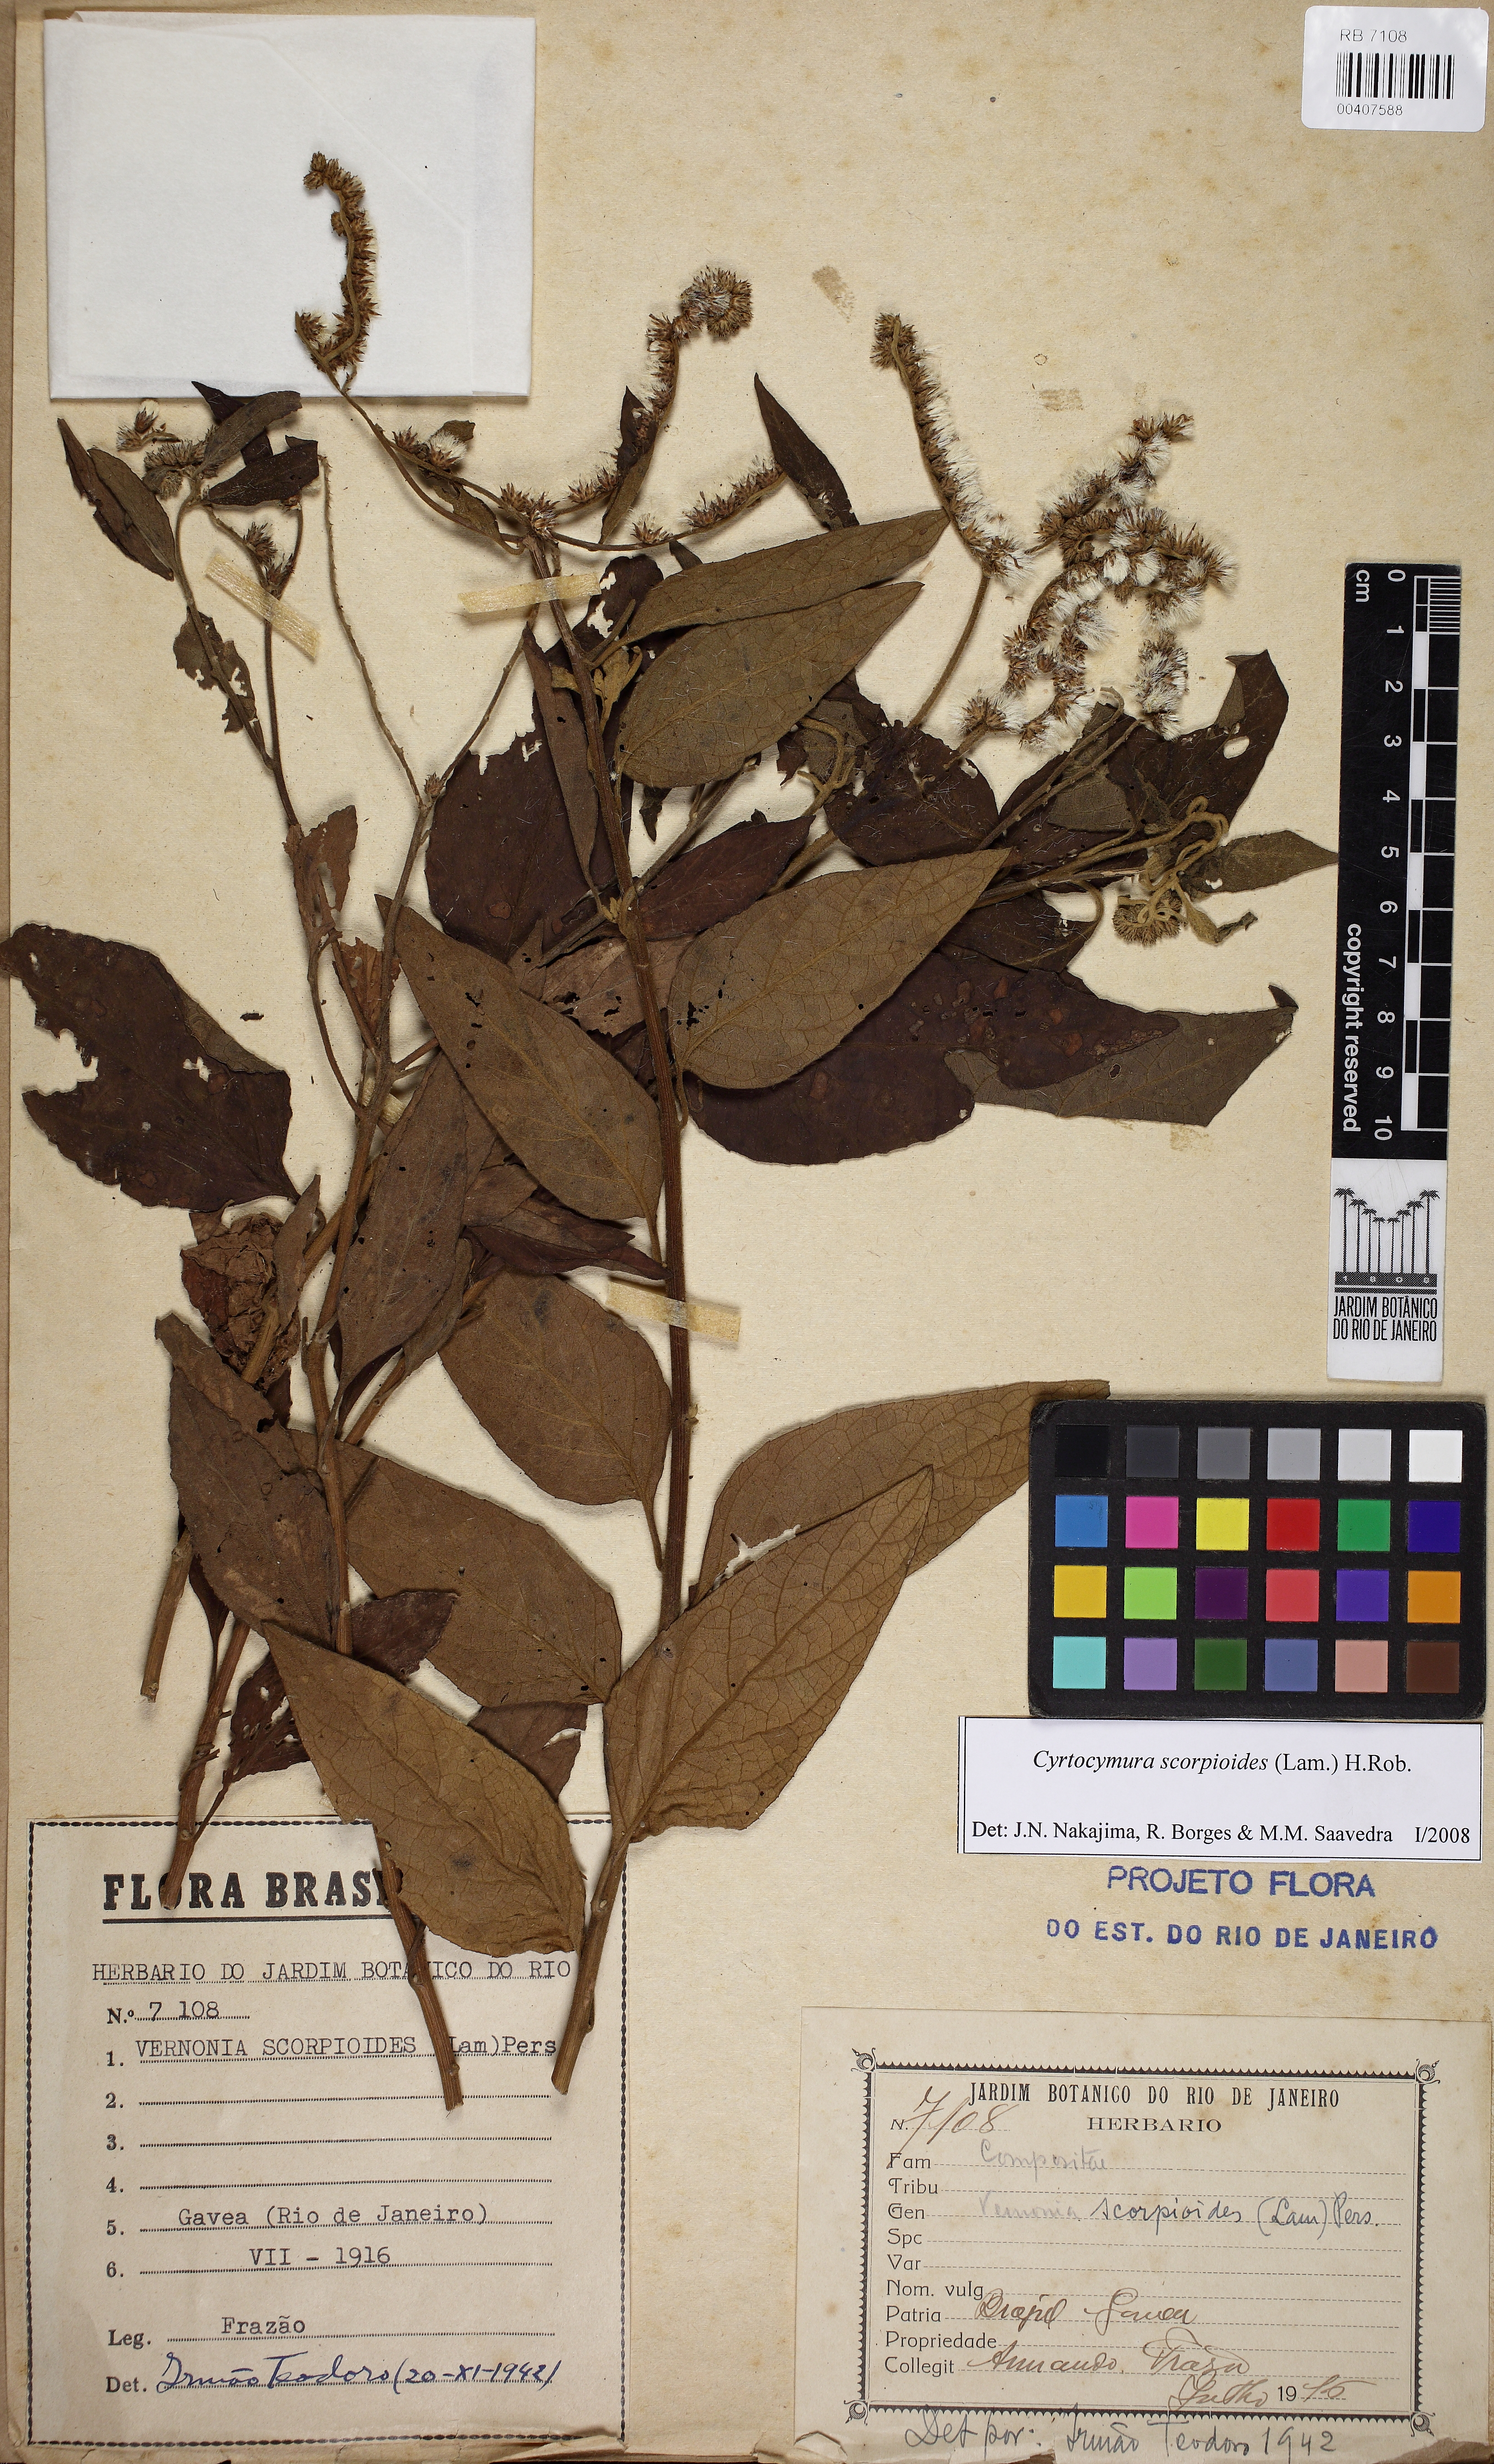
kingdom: Plantae
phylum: Tracheophyta
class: Magnoliopsida
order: Asterales
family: Asteraceae
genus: Cyrtocymura
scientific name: Cyrtocymura scorpioides
